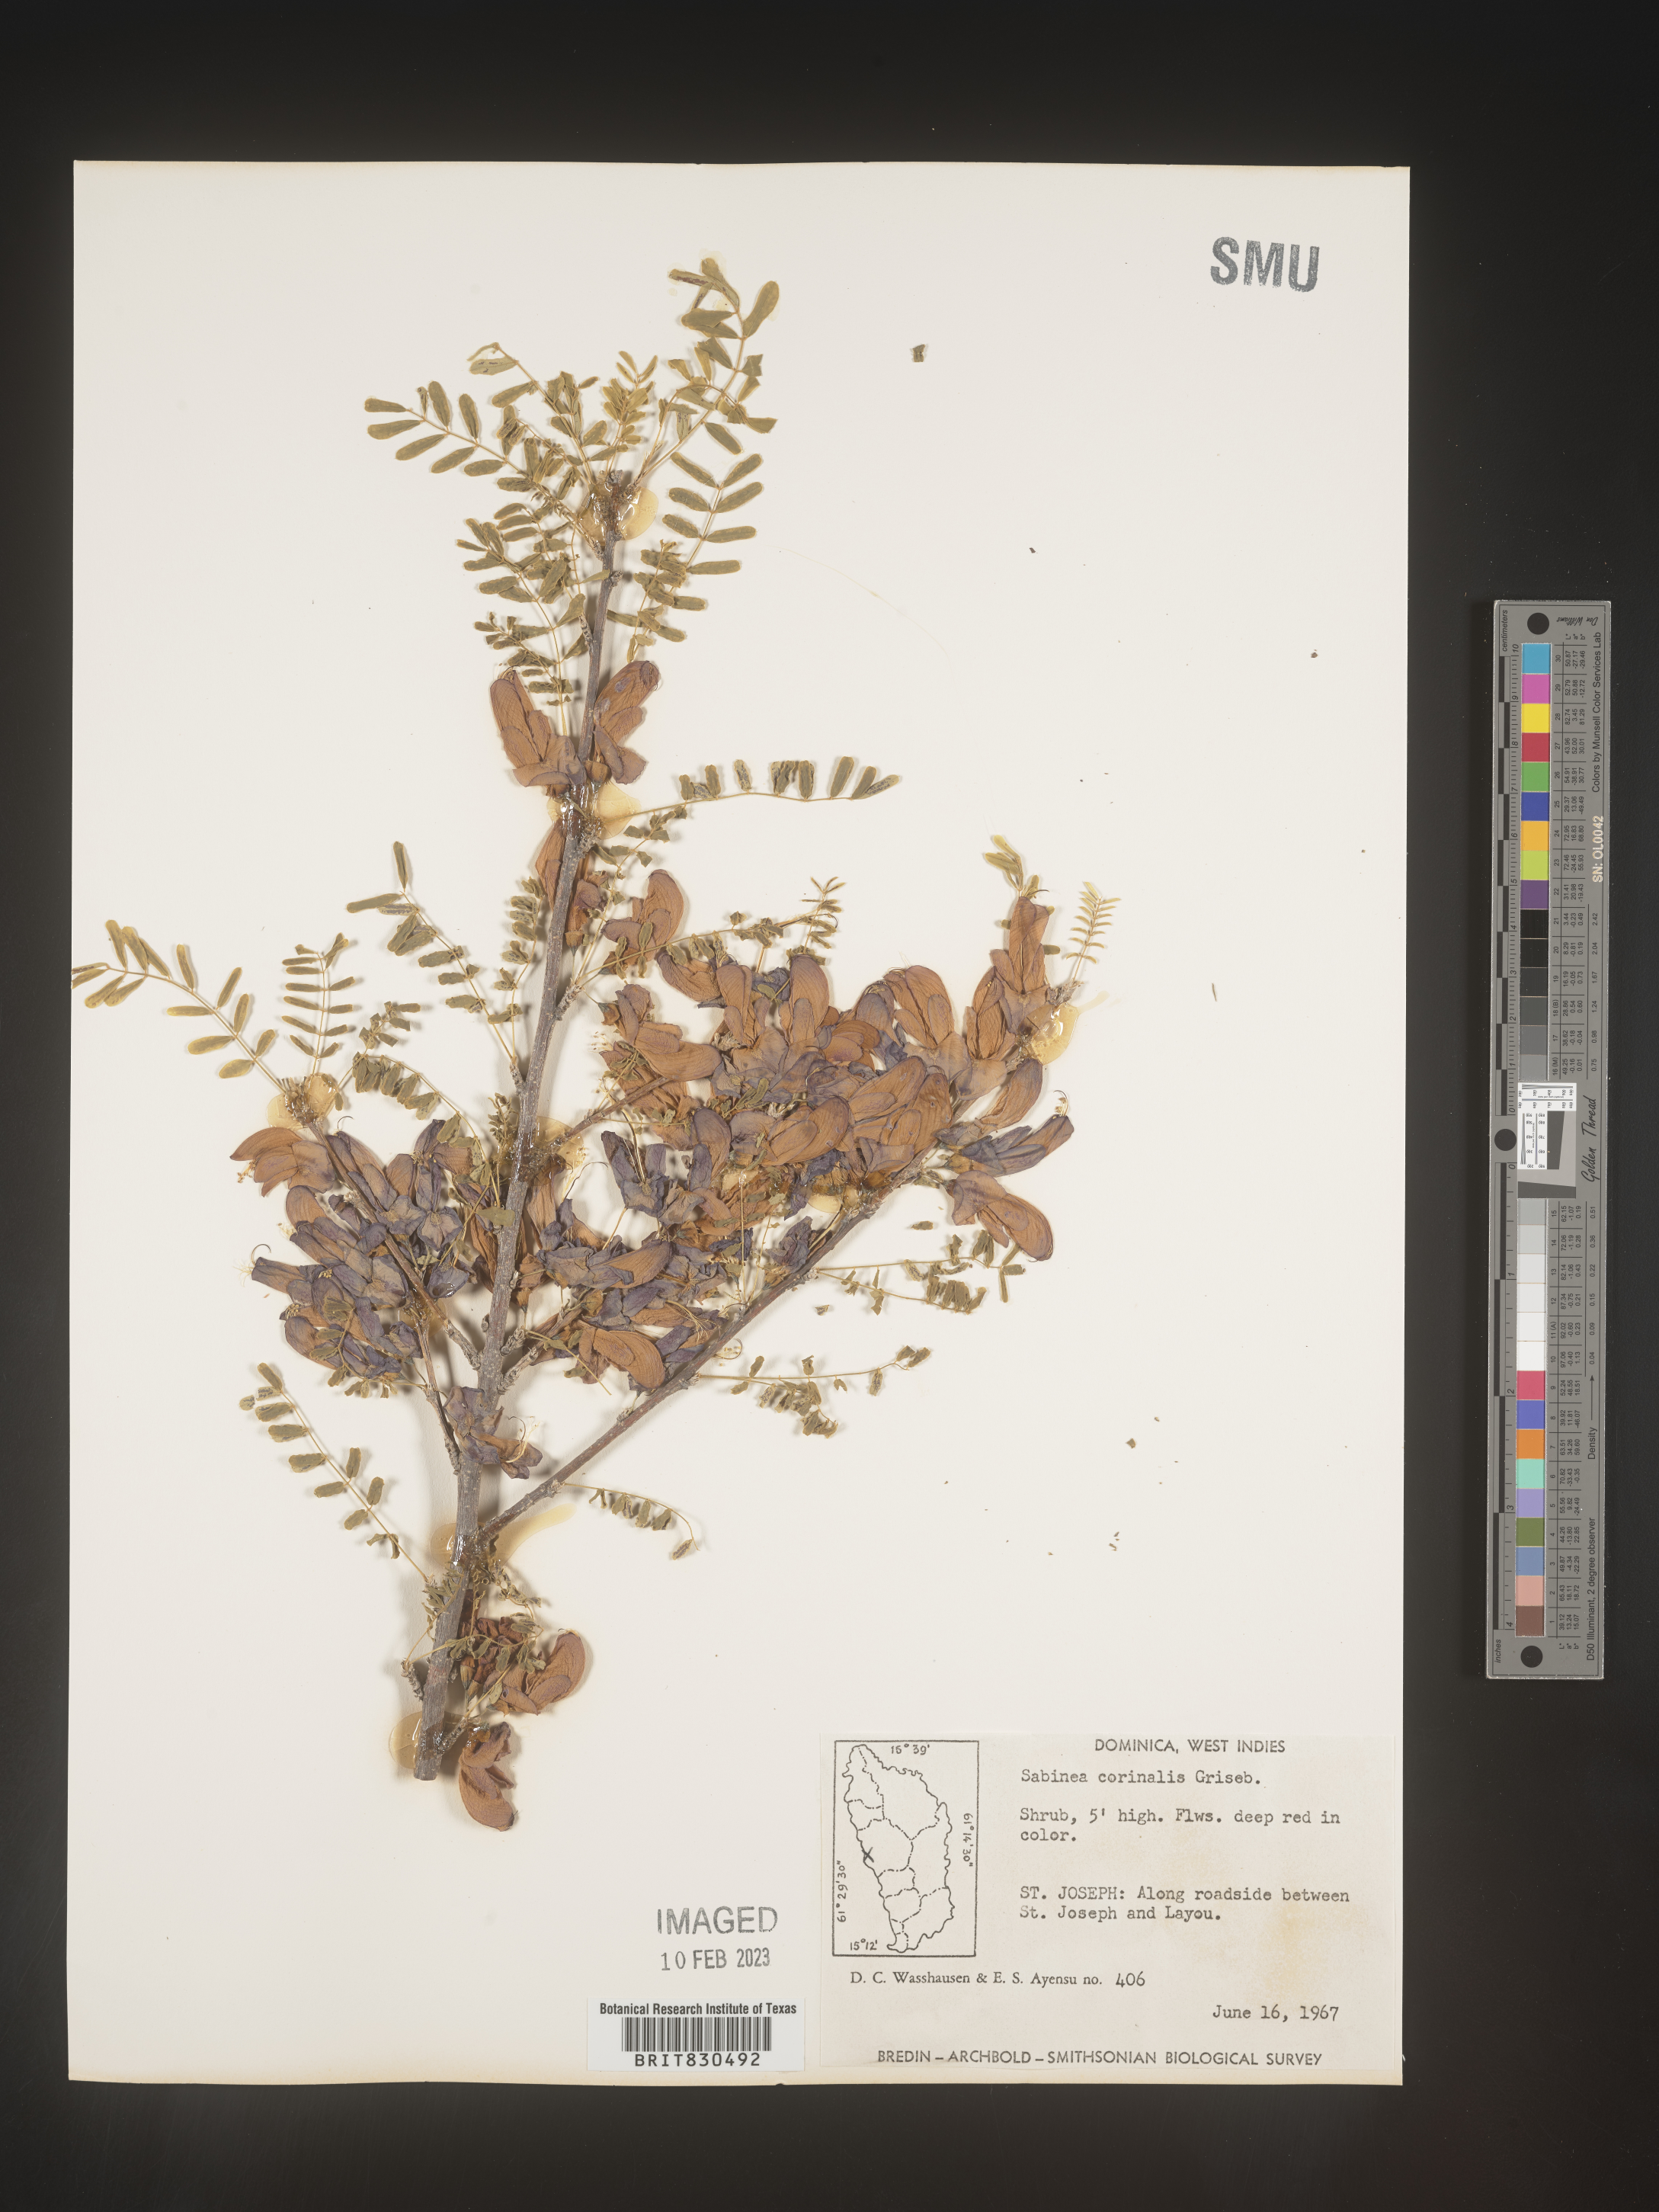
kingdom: Plantae
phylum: Tracheophyta
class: Magnoliopsida
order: Fabales
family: Fabaceae
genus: Poitea
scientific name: Poitea carinalis
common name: Caribwood
